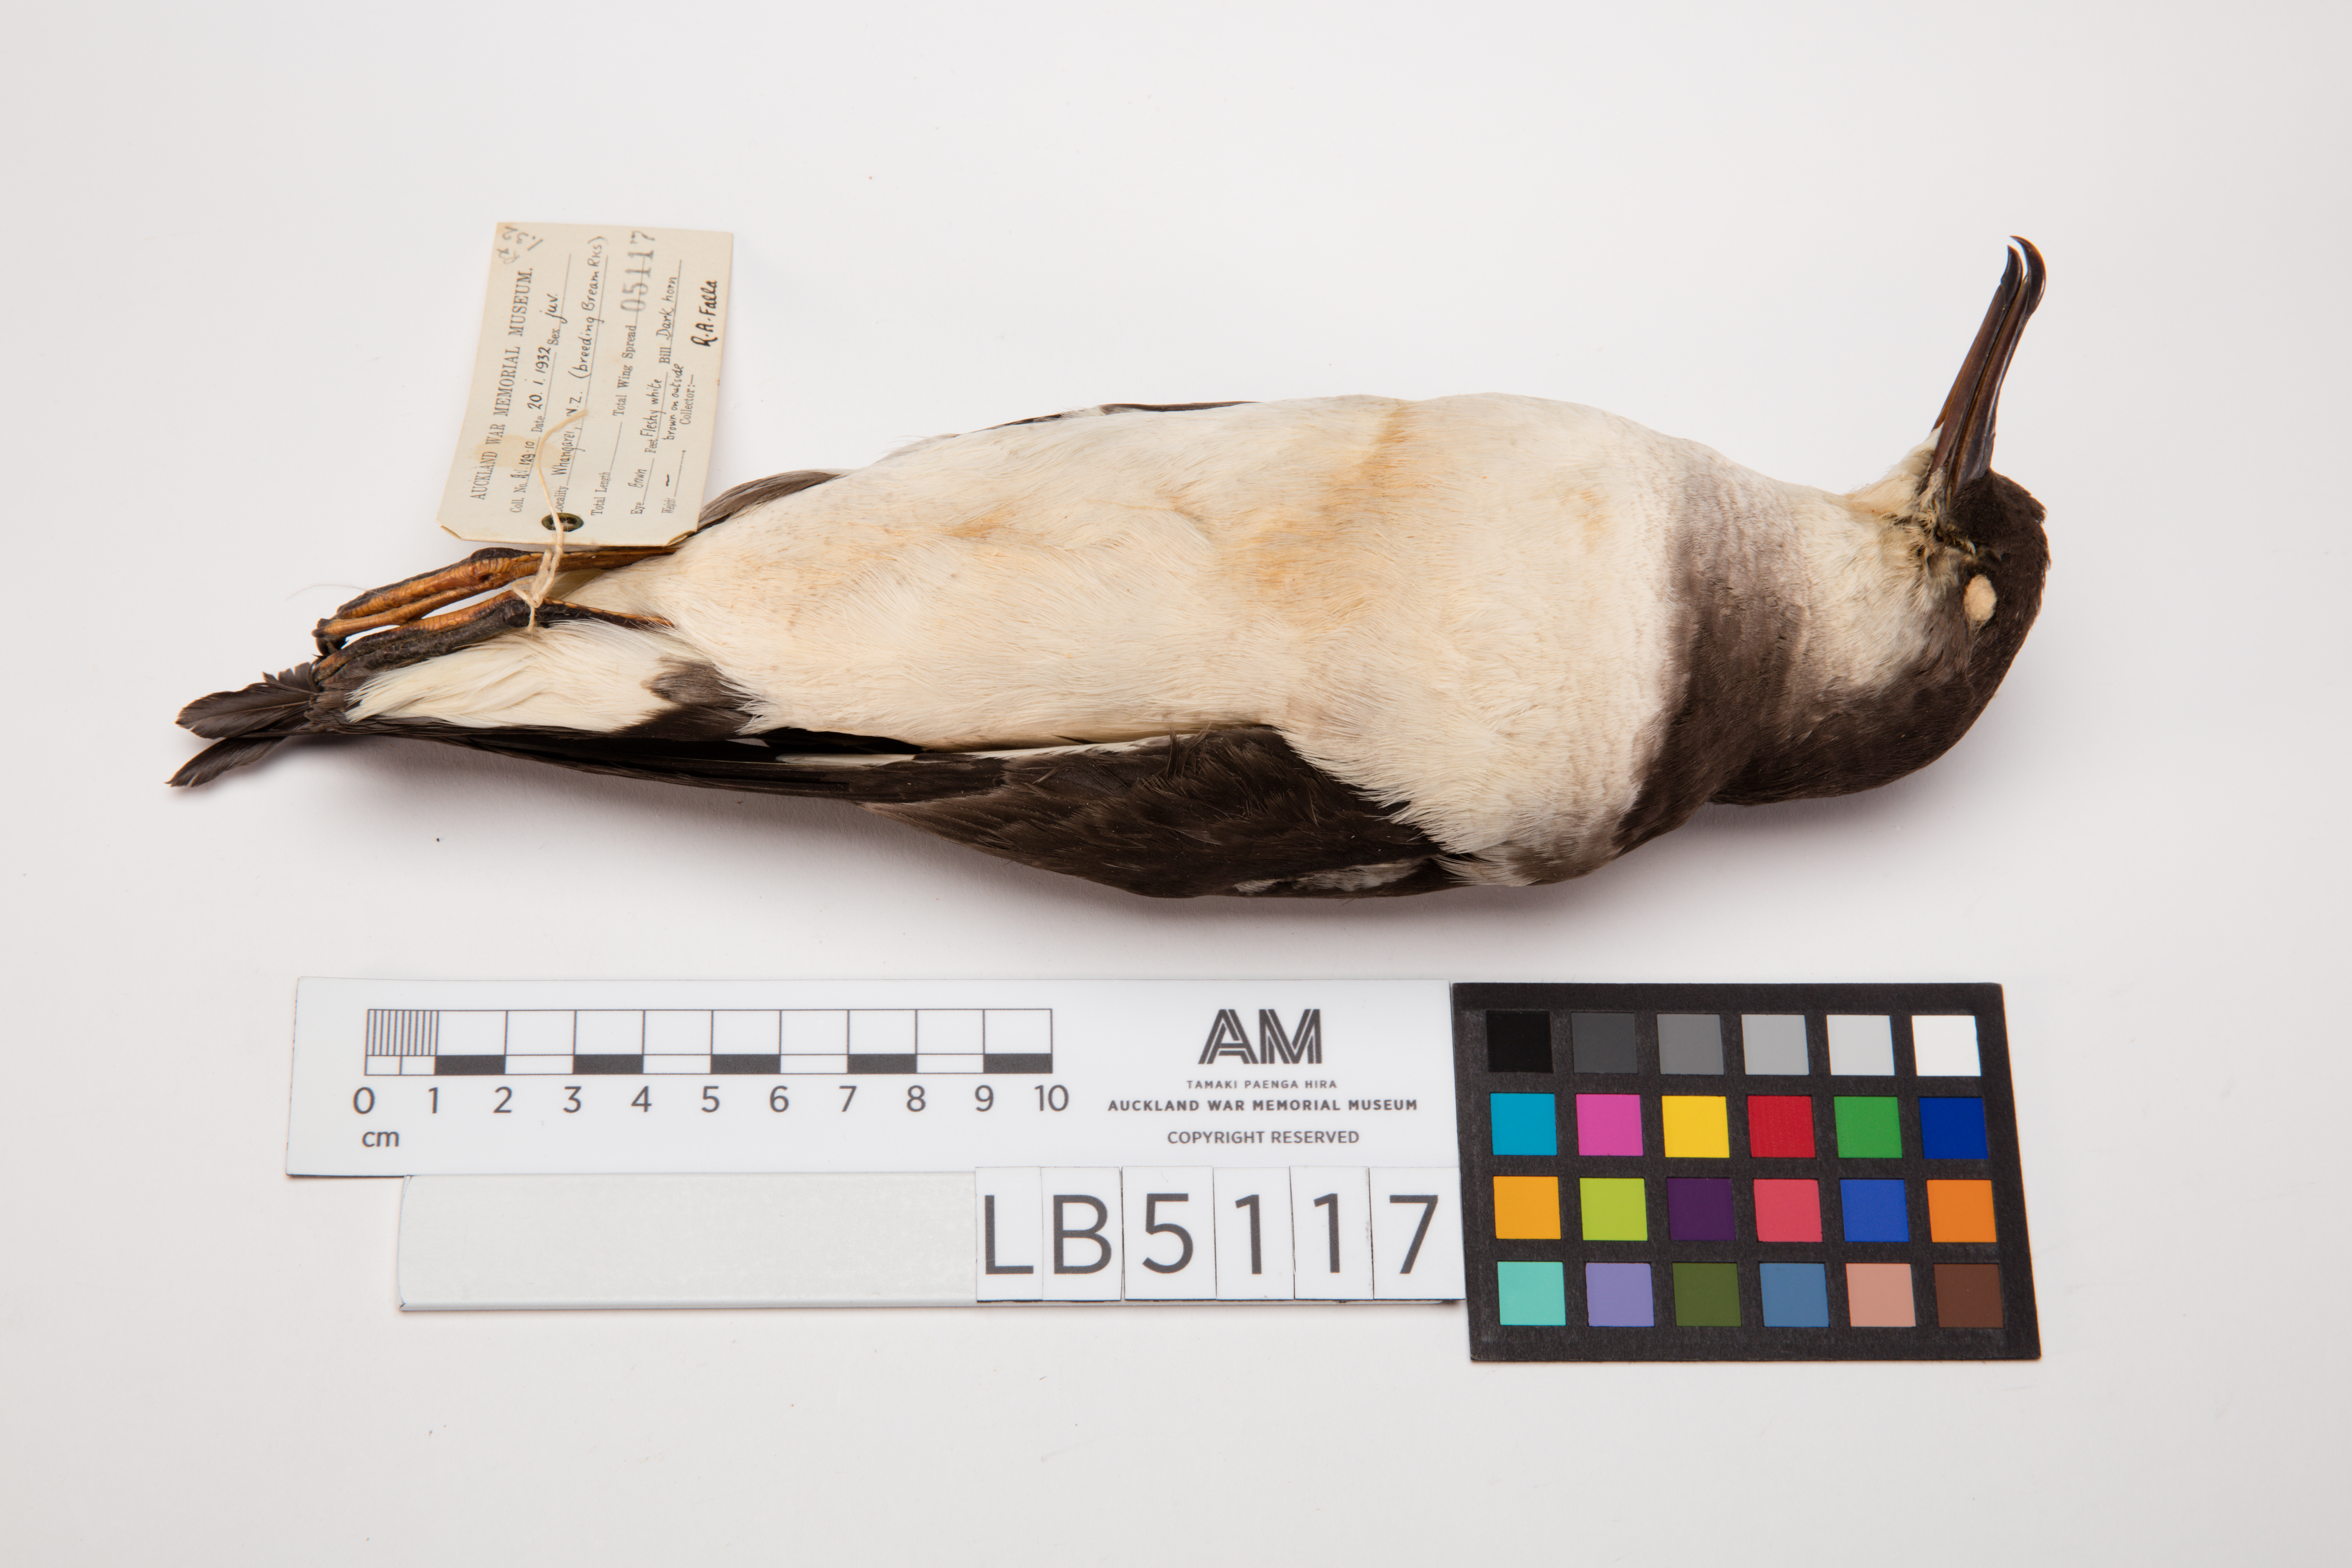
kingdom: Animalia
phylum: Chordata
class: Aves
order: Procellariiformes
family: Procellariidae
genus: Ardenna
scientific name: Ardenna
